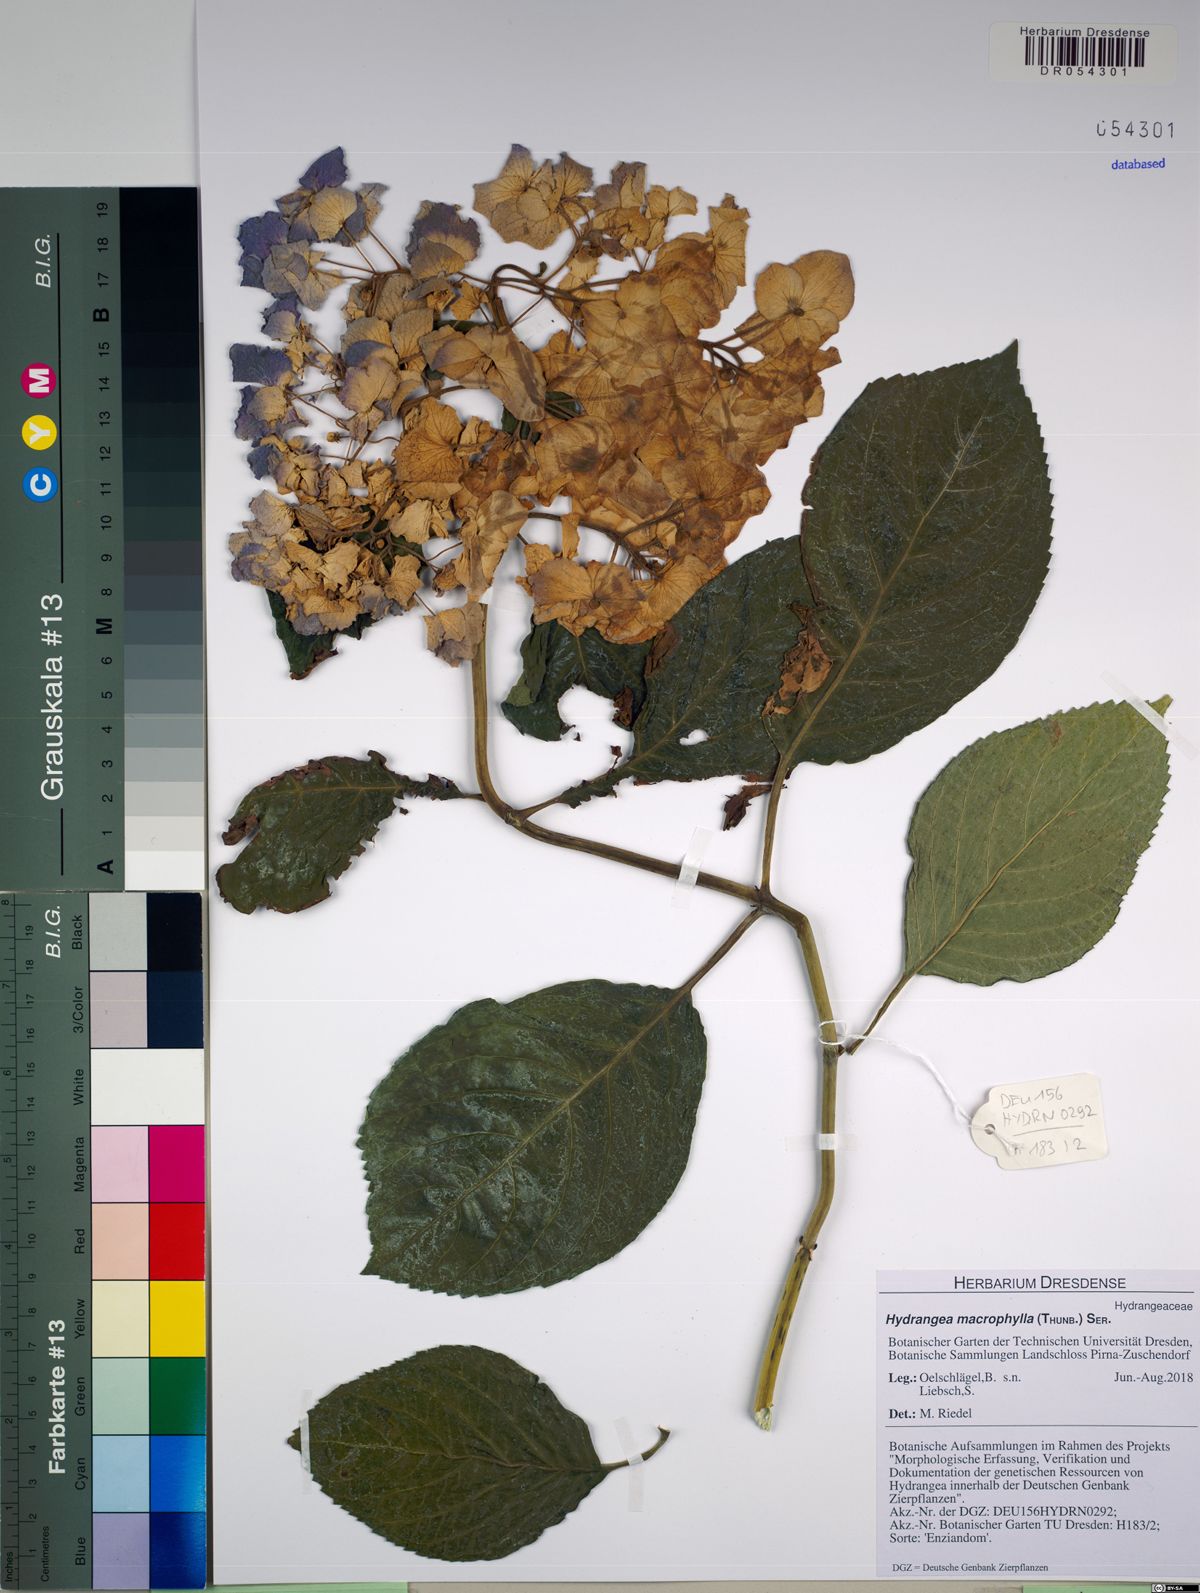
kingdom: Plantae
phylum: Tracheophyta
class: Magnoliopsida
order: Cornales
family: Hydrangeaceae
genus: Hydrangea
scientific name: Hydrangea macrophylla
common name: Hydrangea
